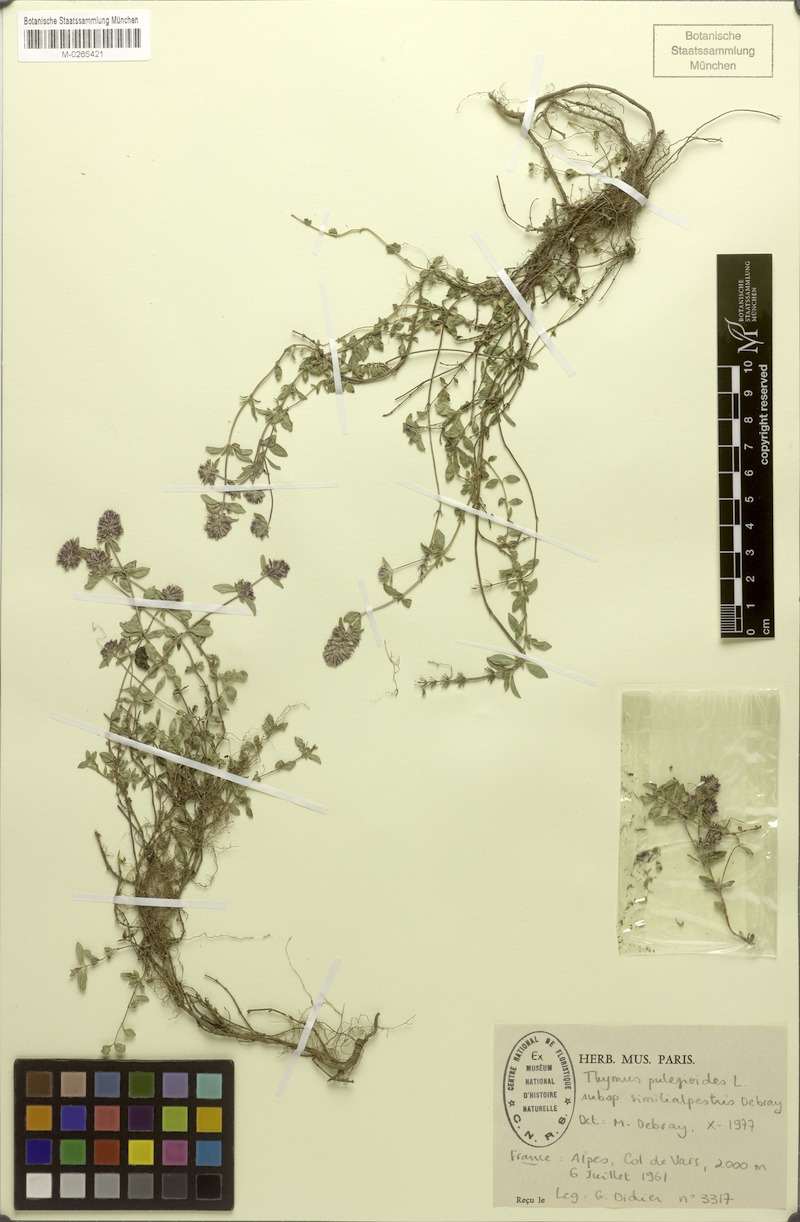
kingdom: Plantae
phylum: Tracheophyta
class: Magnoliopsida
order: Lamiales
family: Lamiaceae
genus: Thymus
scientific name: Thymus pulegioides
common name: Large thyme
